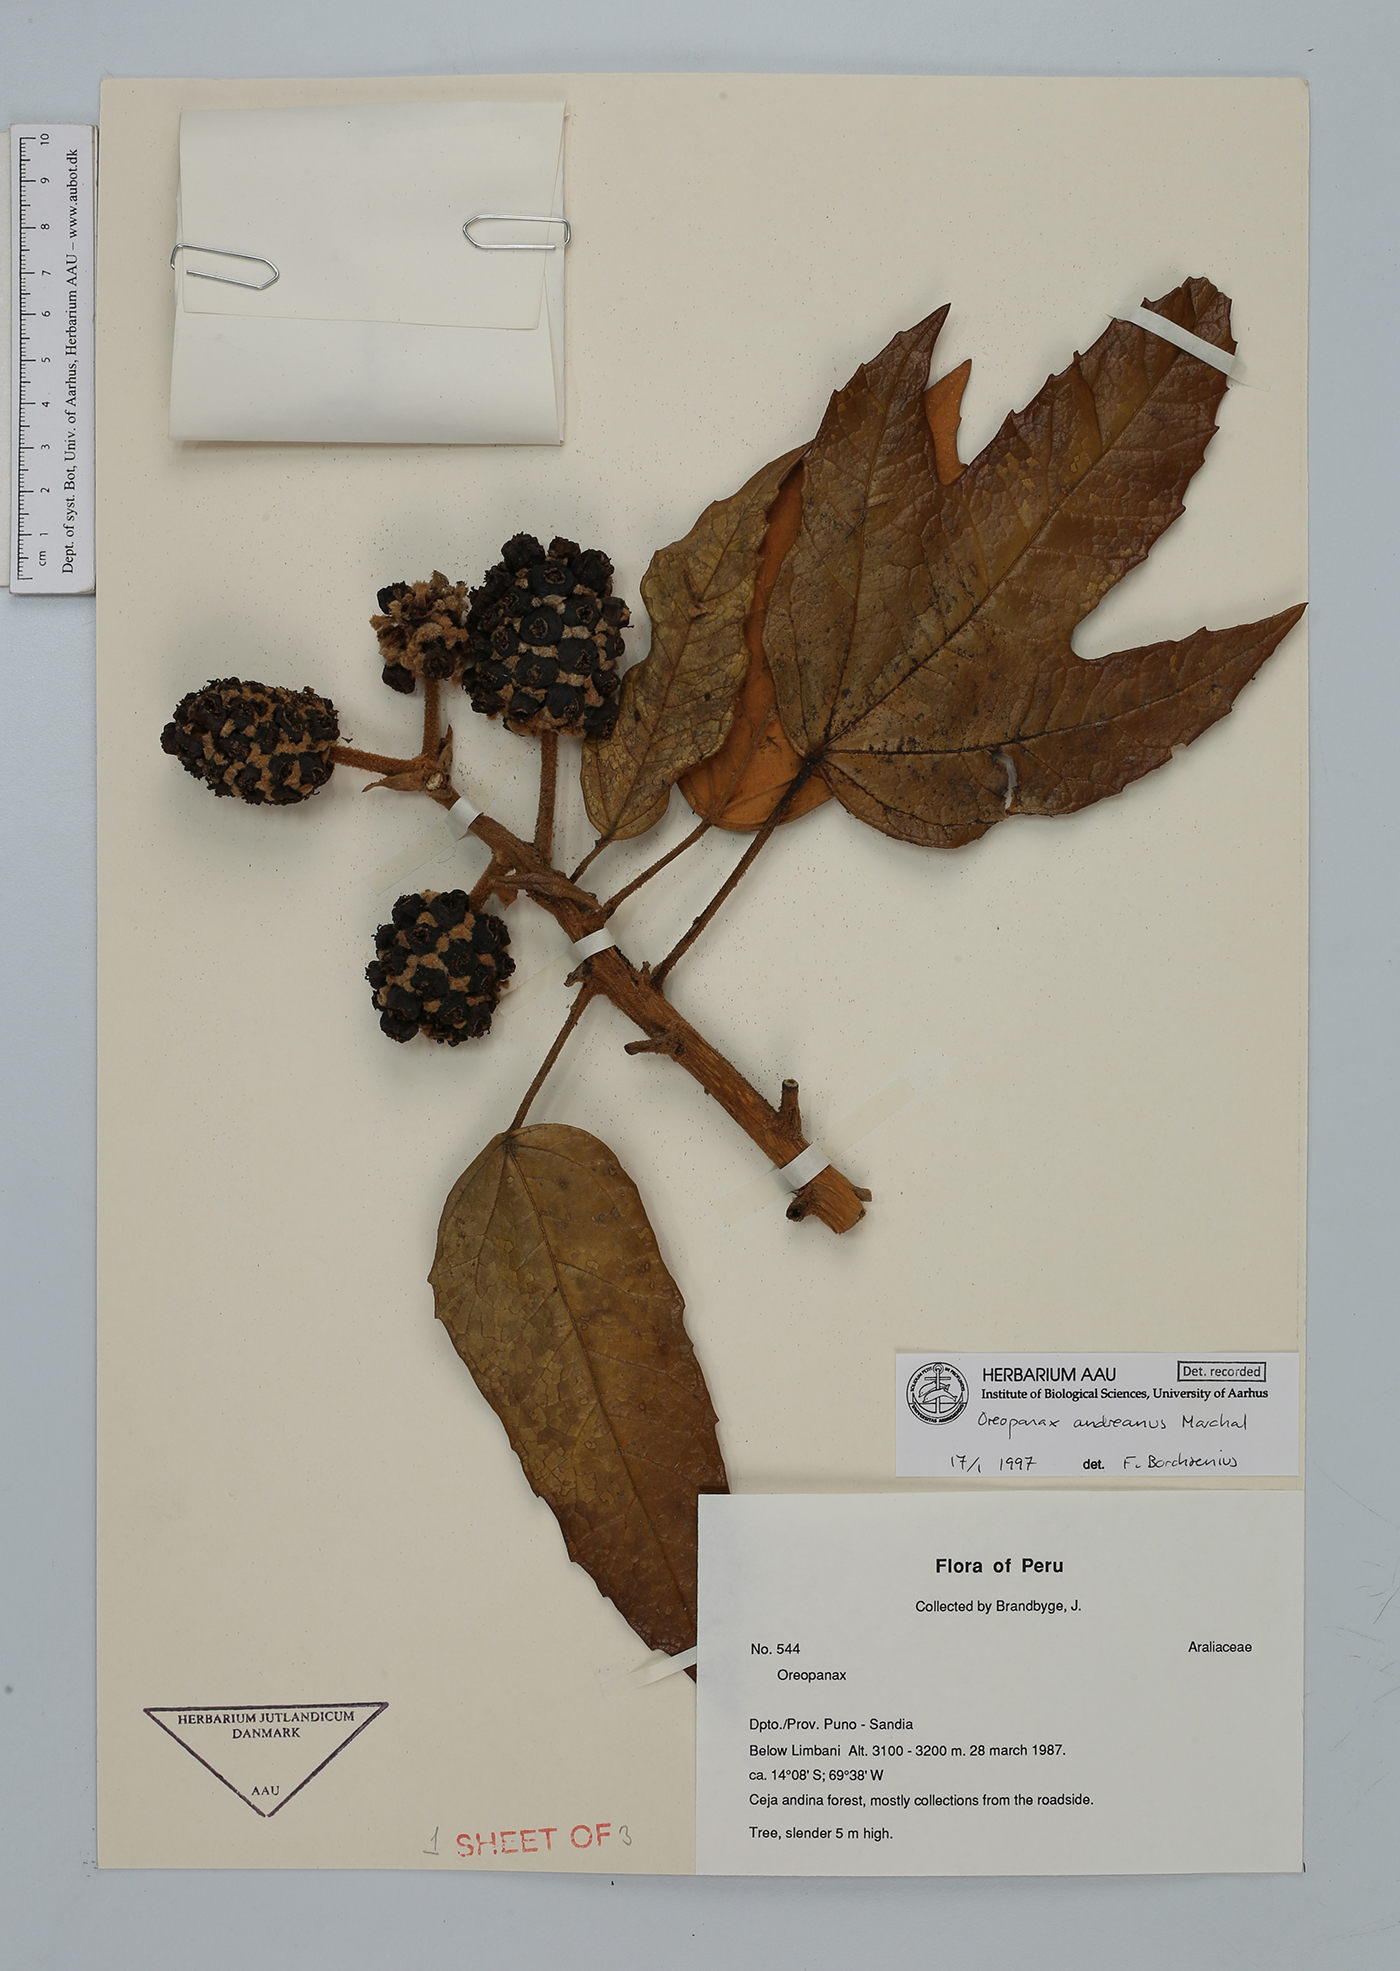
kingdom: Plantae
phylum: Tracheophyta
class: Magnoliopsida
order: Apiales
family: Araliaceae
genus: Oreopanax
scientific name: Oreopanax andreanus
